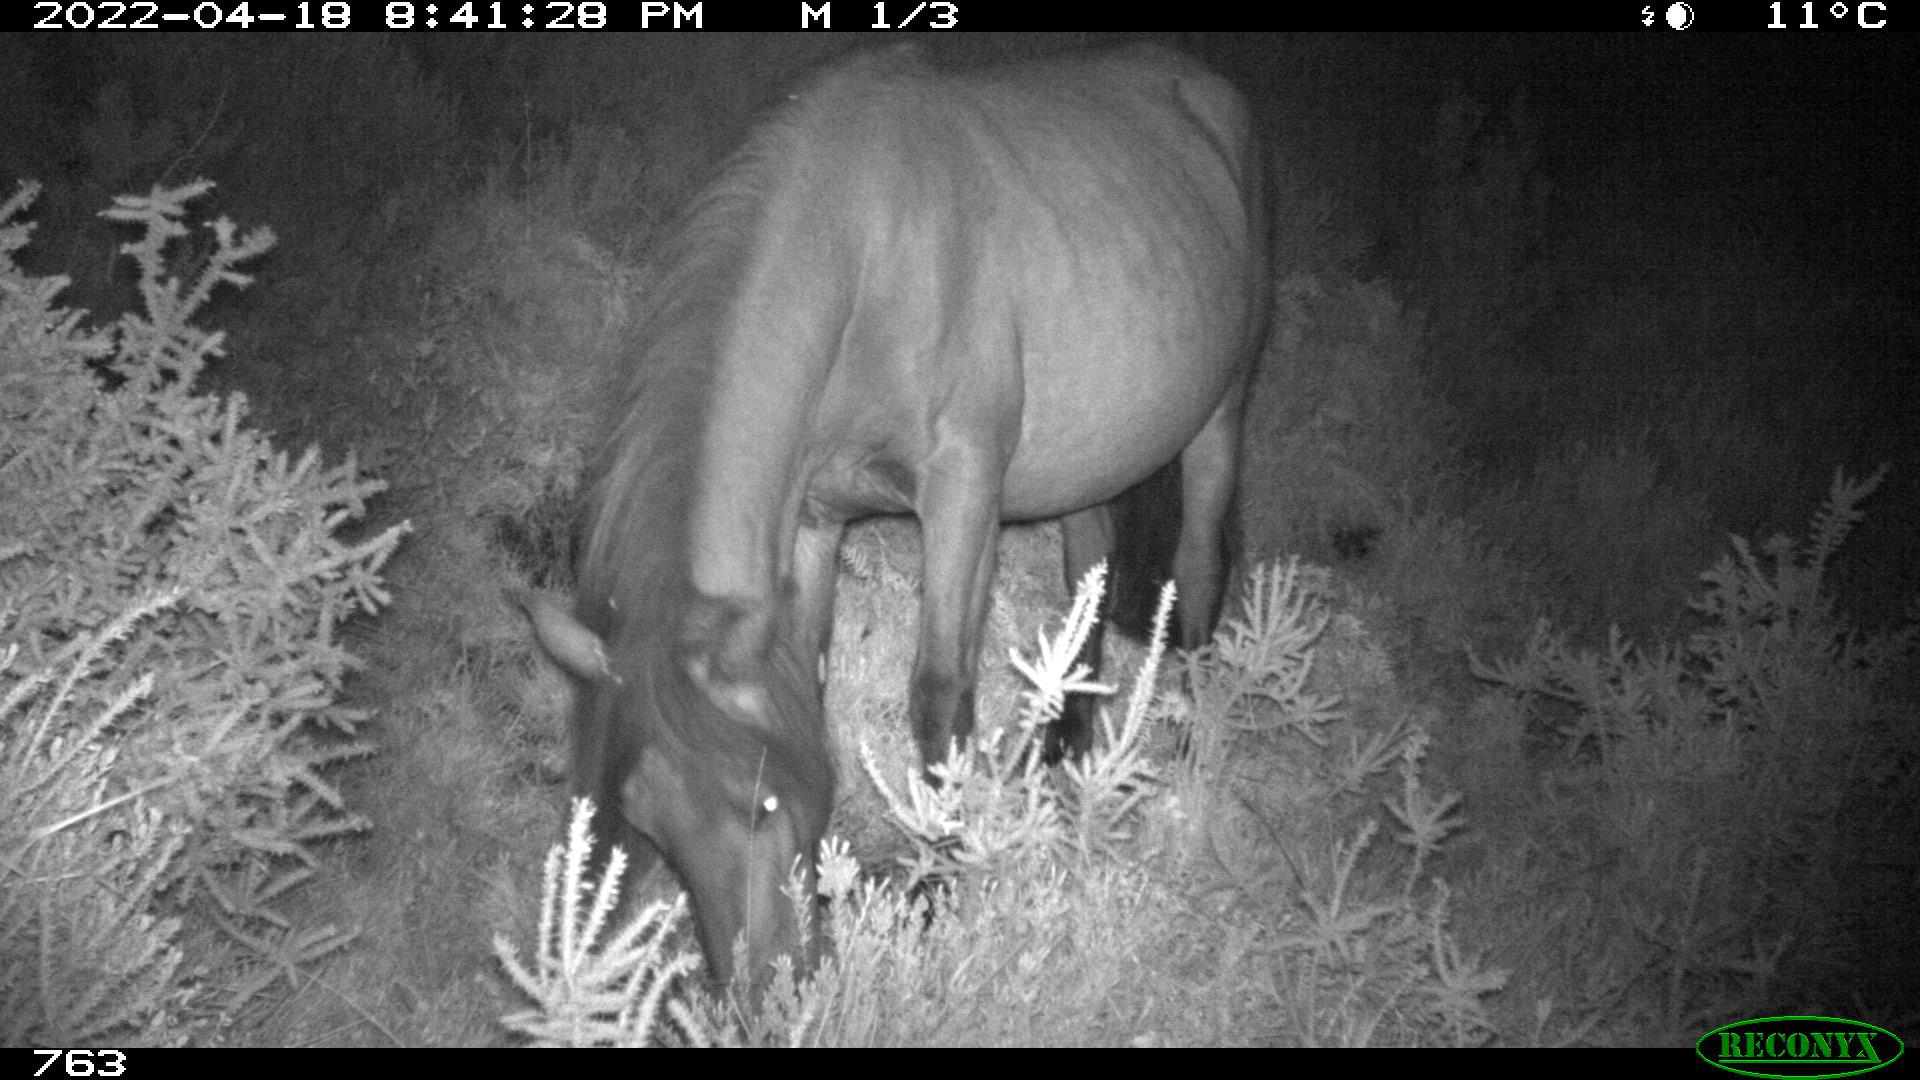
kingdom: Animalia
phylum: Chordata
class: Mammalia
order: Perissodactyla
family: Equidae
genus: Equus
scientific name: Equus caballus
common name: Horse
